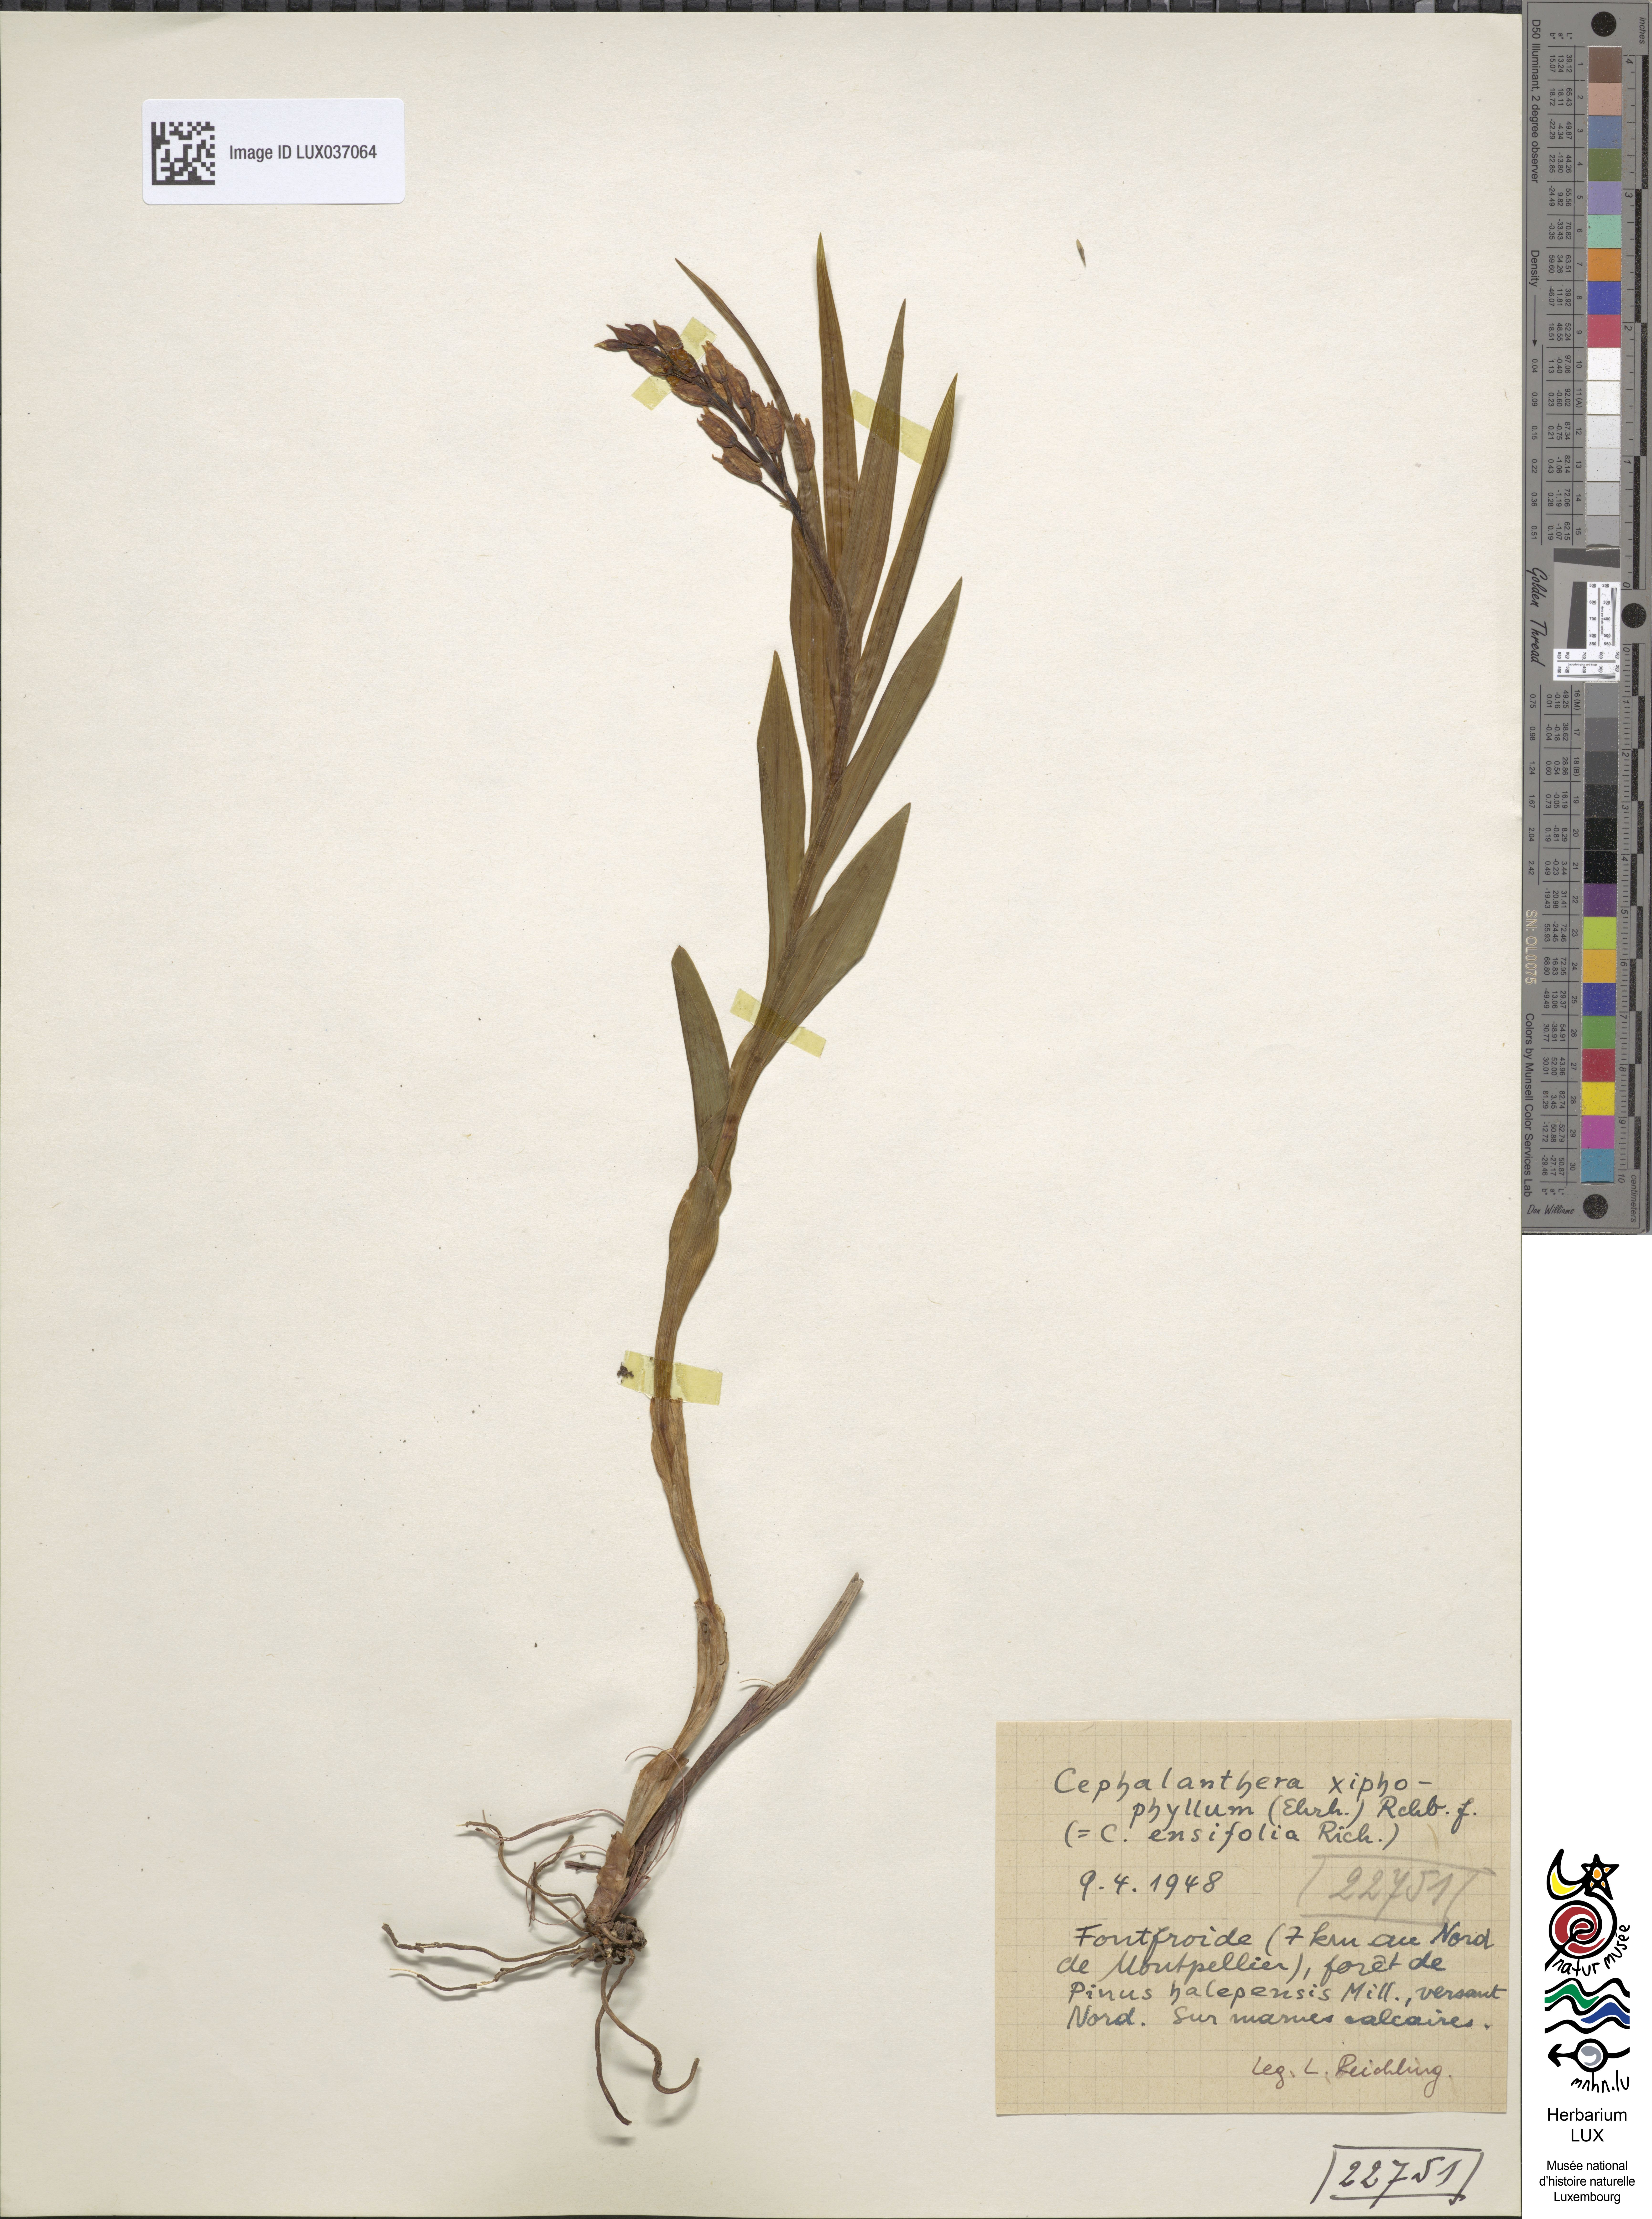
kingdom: Plantae
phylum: Tracheophyta
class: Liliopsida
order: Asparagales
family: Orchidaceae
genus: Cephalanthera
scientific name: Cephalanthera longifolia
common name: Narrow-leaved helleborine
